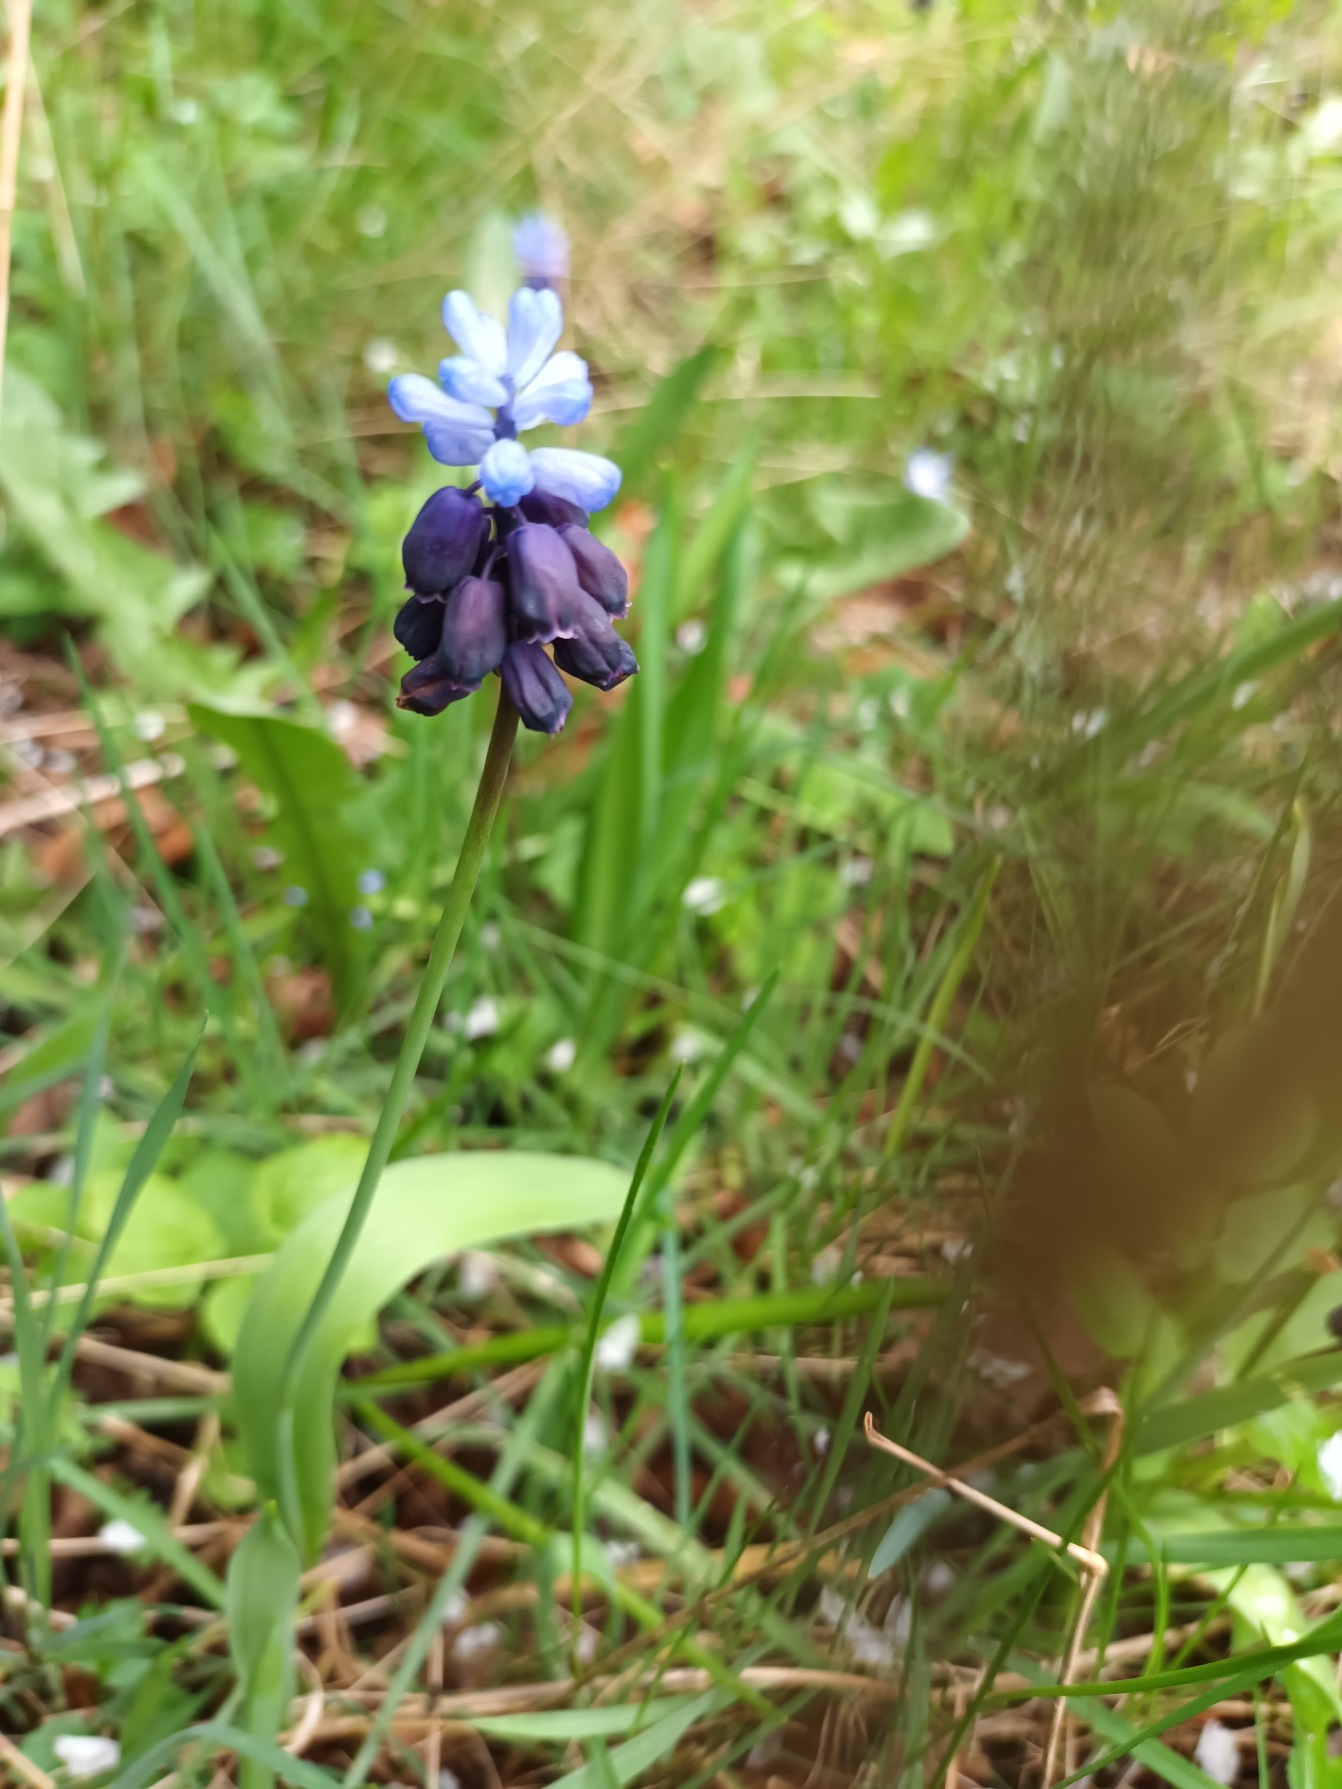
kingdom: Plantae
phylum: Tracheophyta
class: Liliopsida
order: Asparagales
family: Asparagaceae
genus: Muscari
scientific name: Muscari latifolium
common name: Bredbladet perlehyacint
